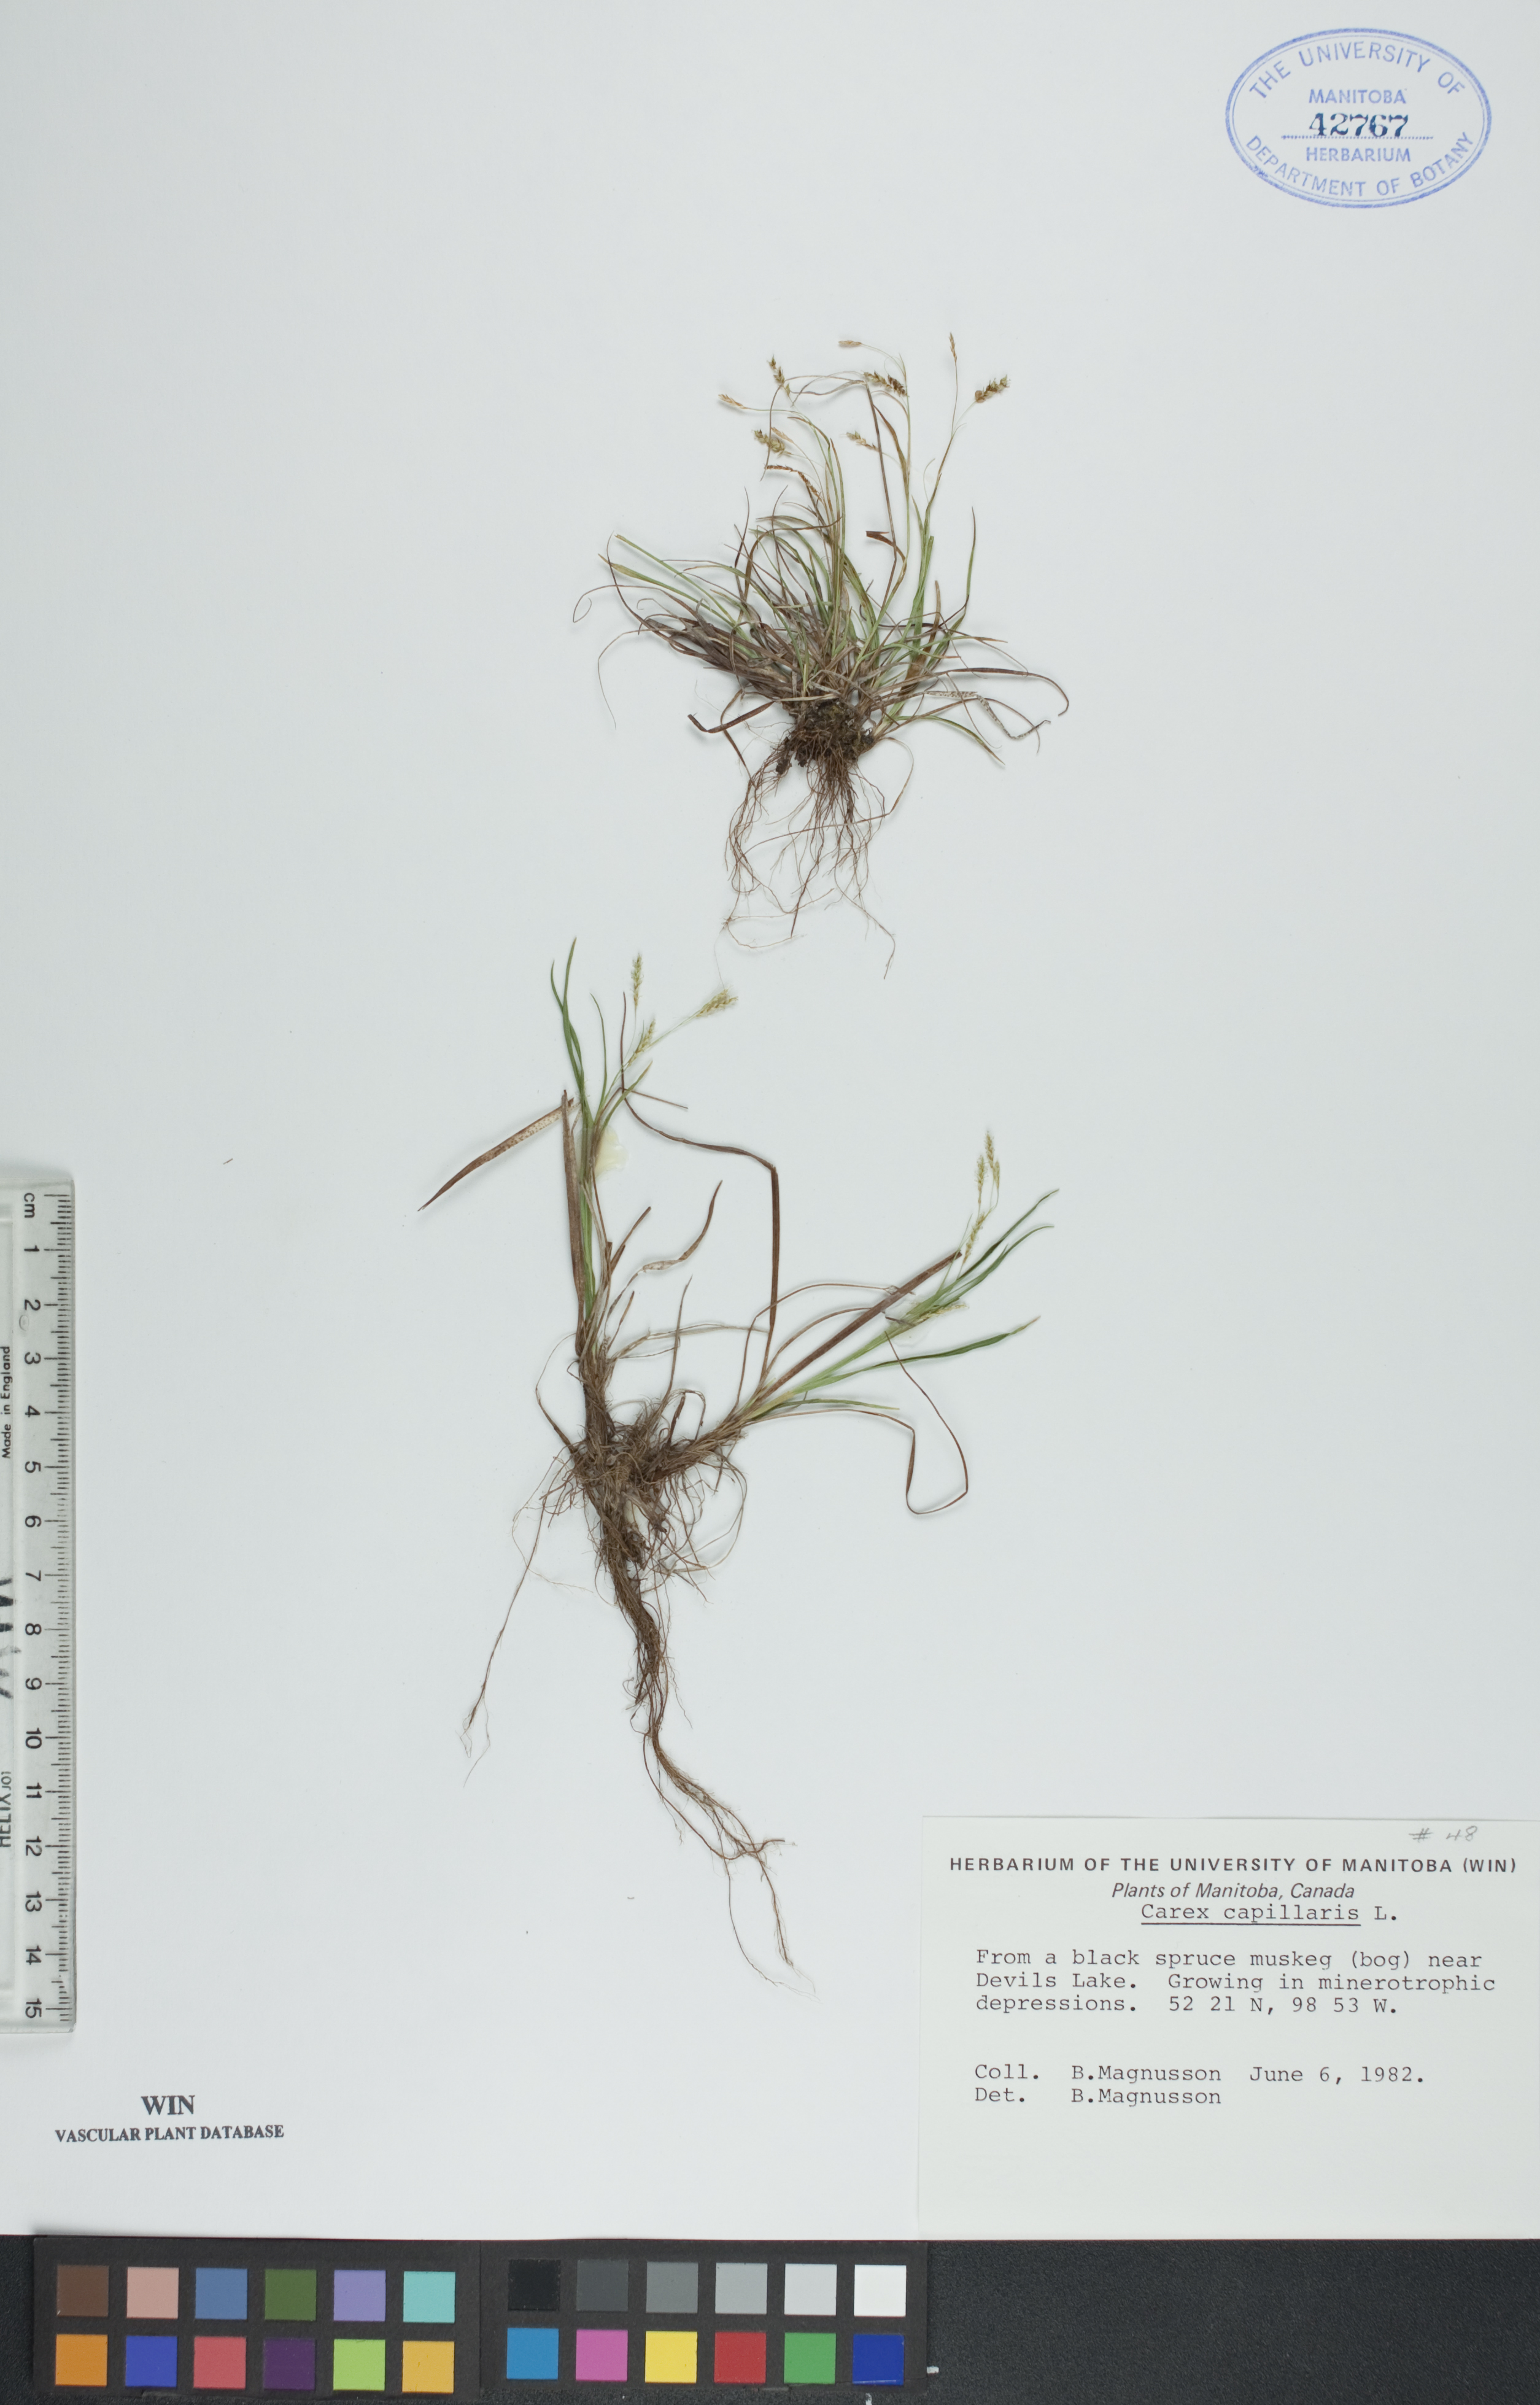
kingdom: Plantae
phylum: Tracheophyta
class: Liliopsida
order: Poales
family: Cyperaceae
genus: Carex
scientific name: Carex capillaris
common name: Hair sedge
